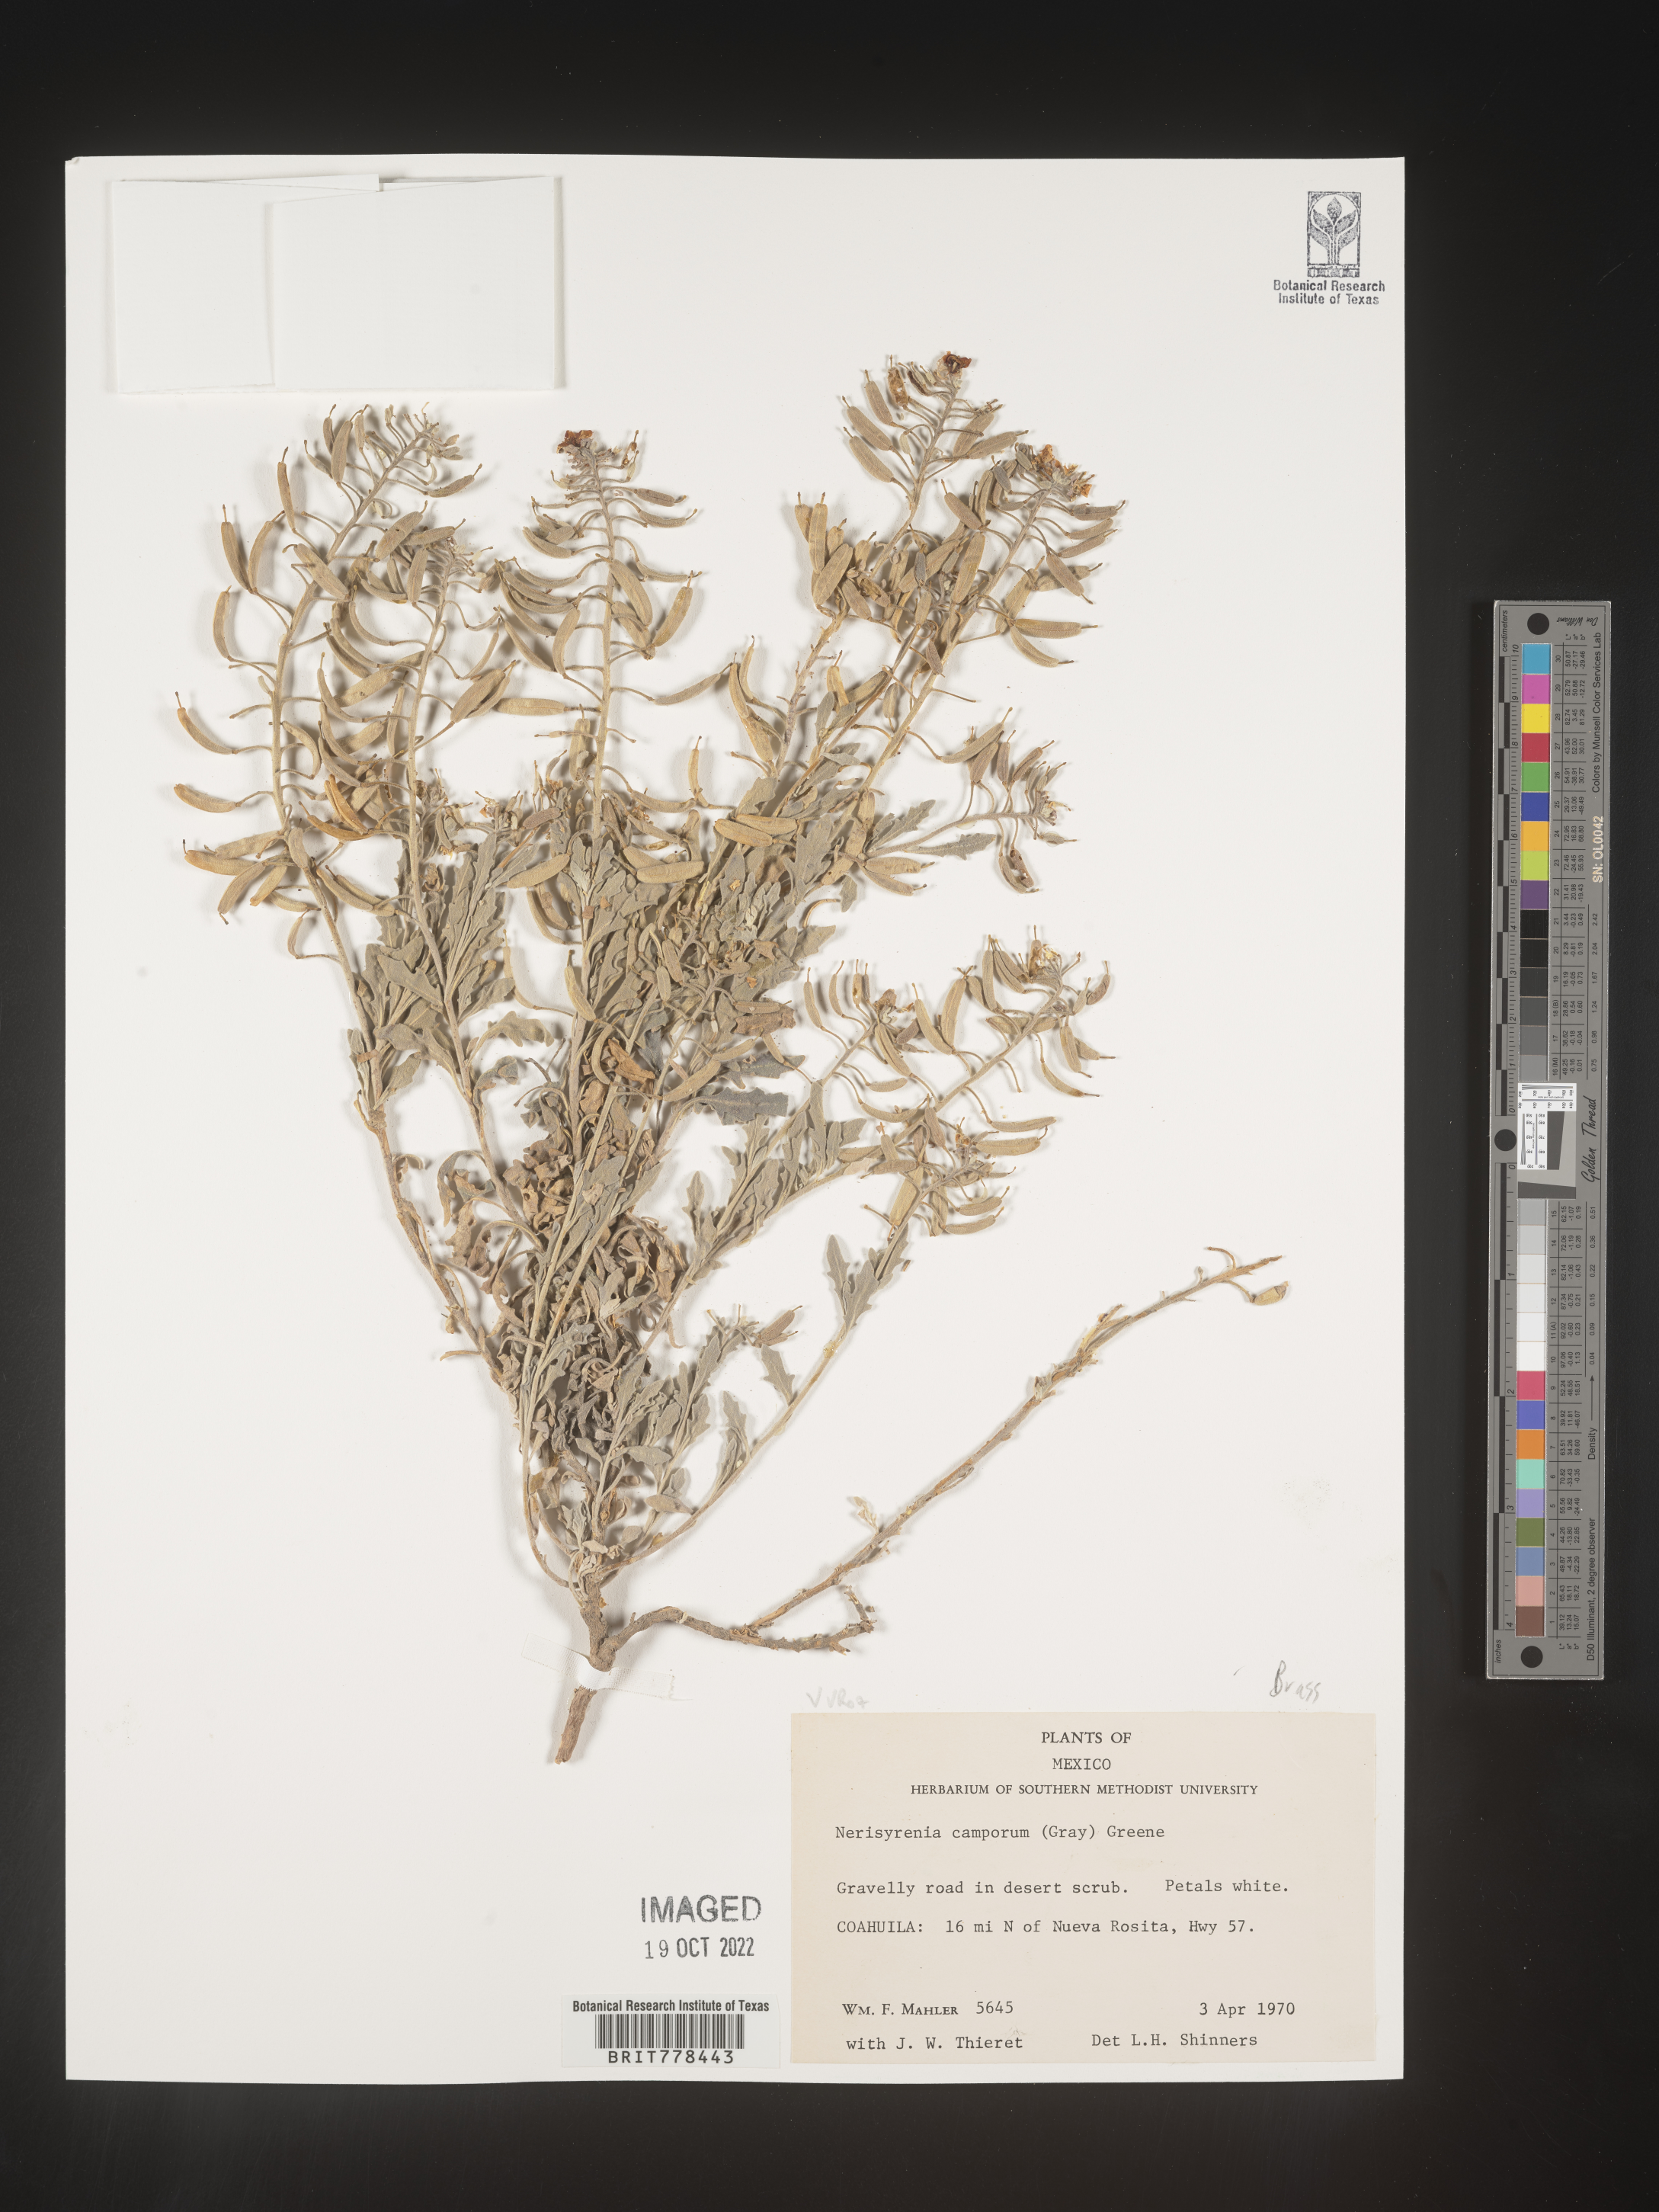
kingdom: Plantae
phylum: Tracheophyta
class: Magnoliopsida
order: Brassicales
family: Brassicaceae
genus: Nerisyrenia
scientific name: Nerisyrenia
